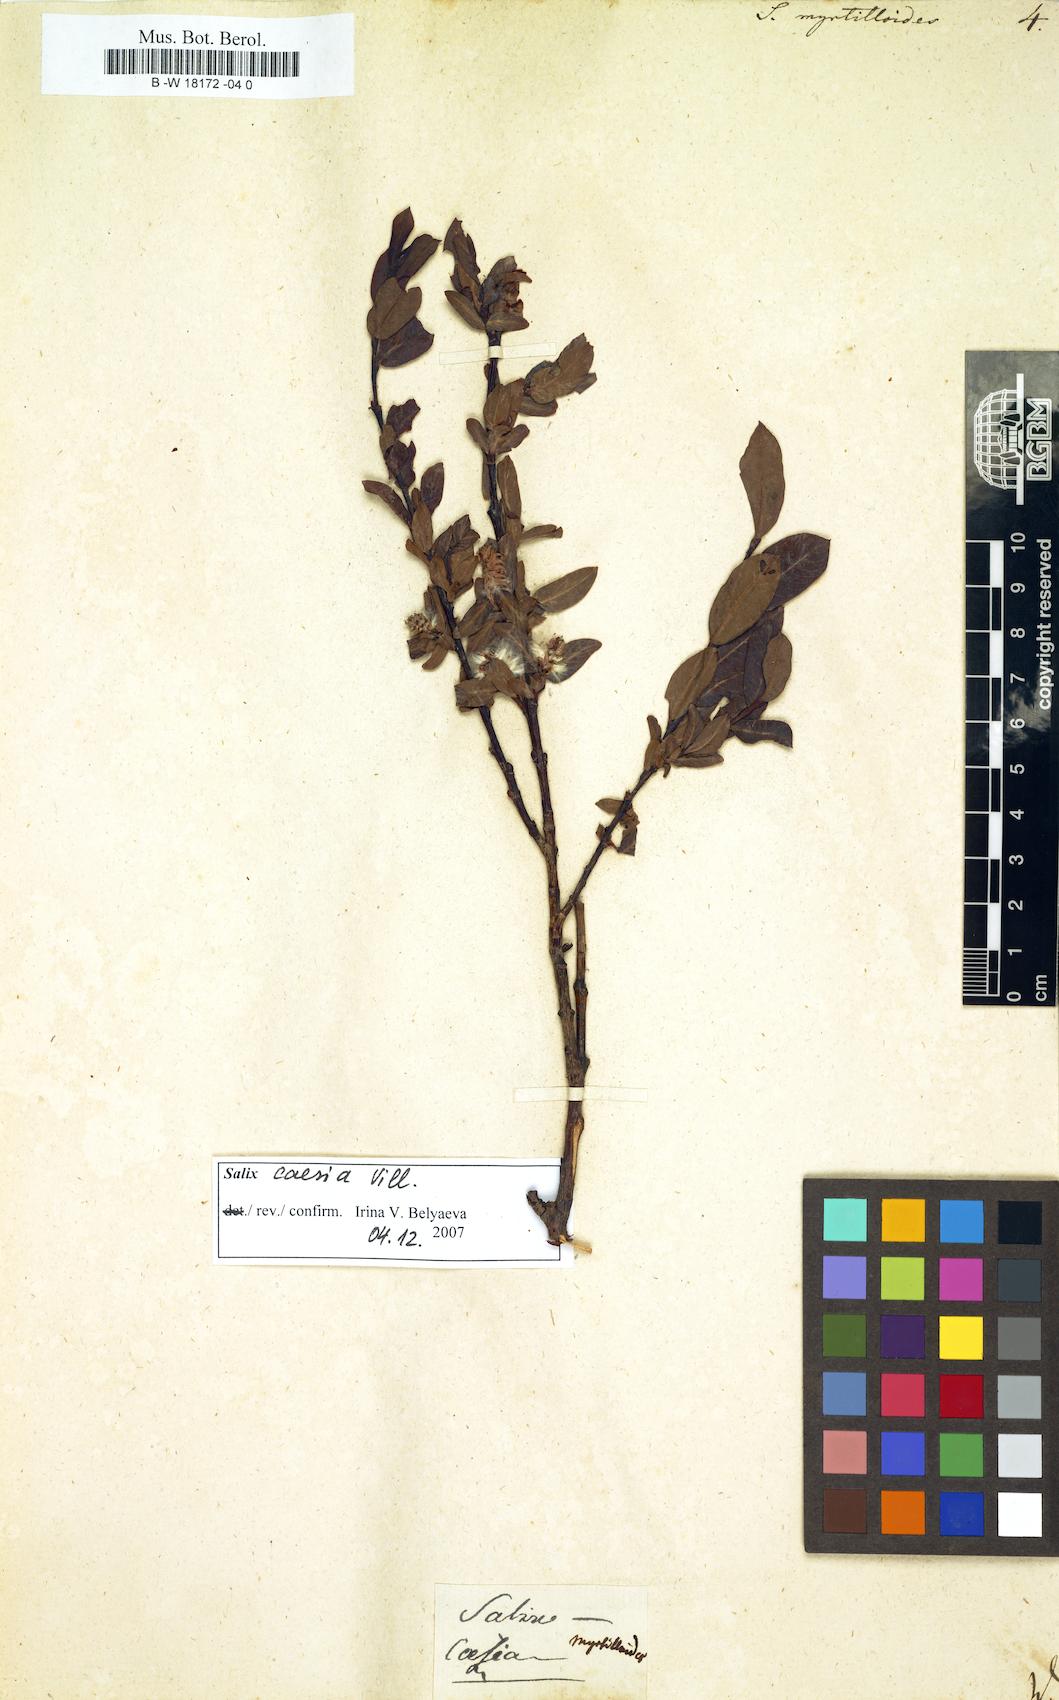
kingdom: Plantae
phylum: Tracheophyta
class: Magnoliopsida
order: Malpighiales
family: Salicaceae
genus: Salix
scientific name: Salix myrtilloides
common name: Myrtle-leaved willow
